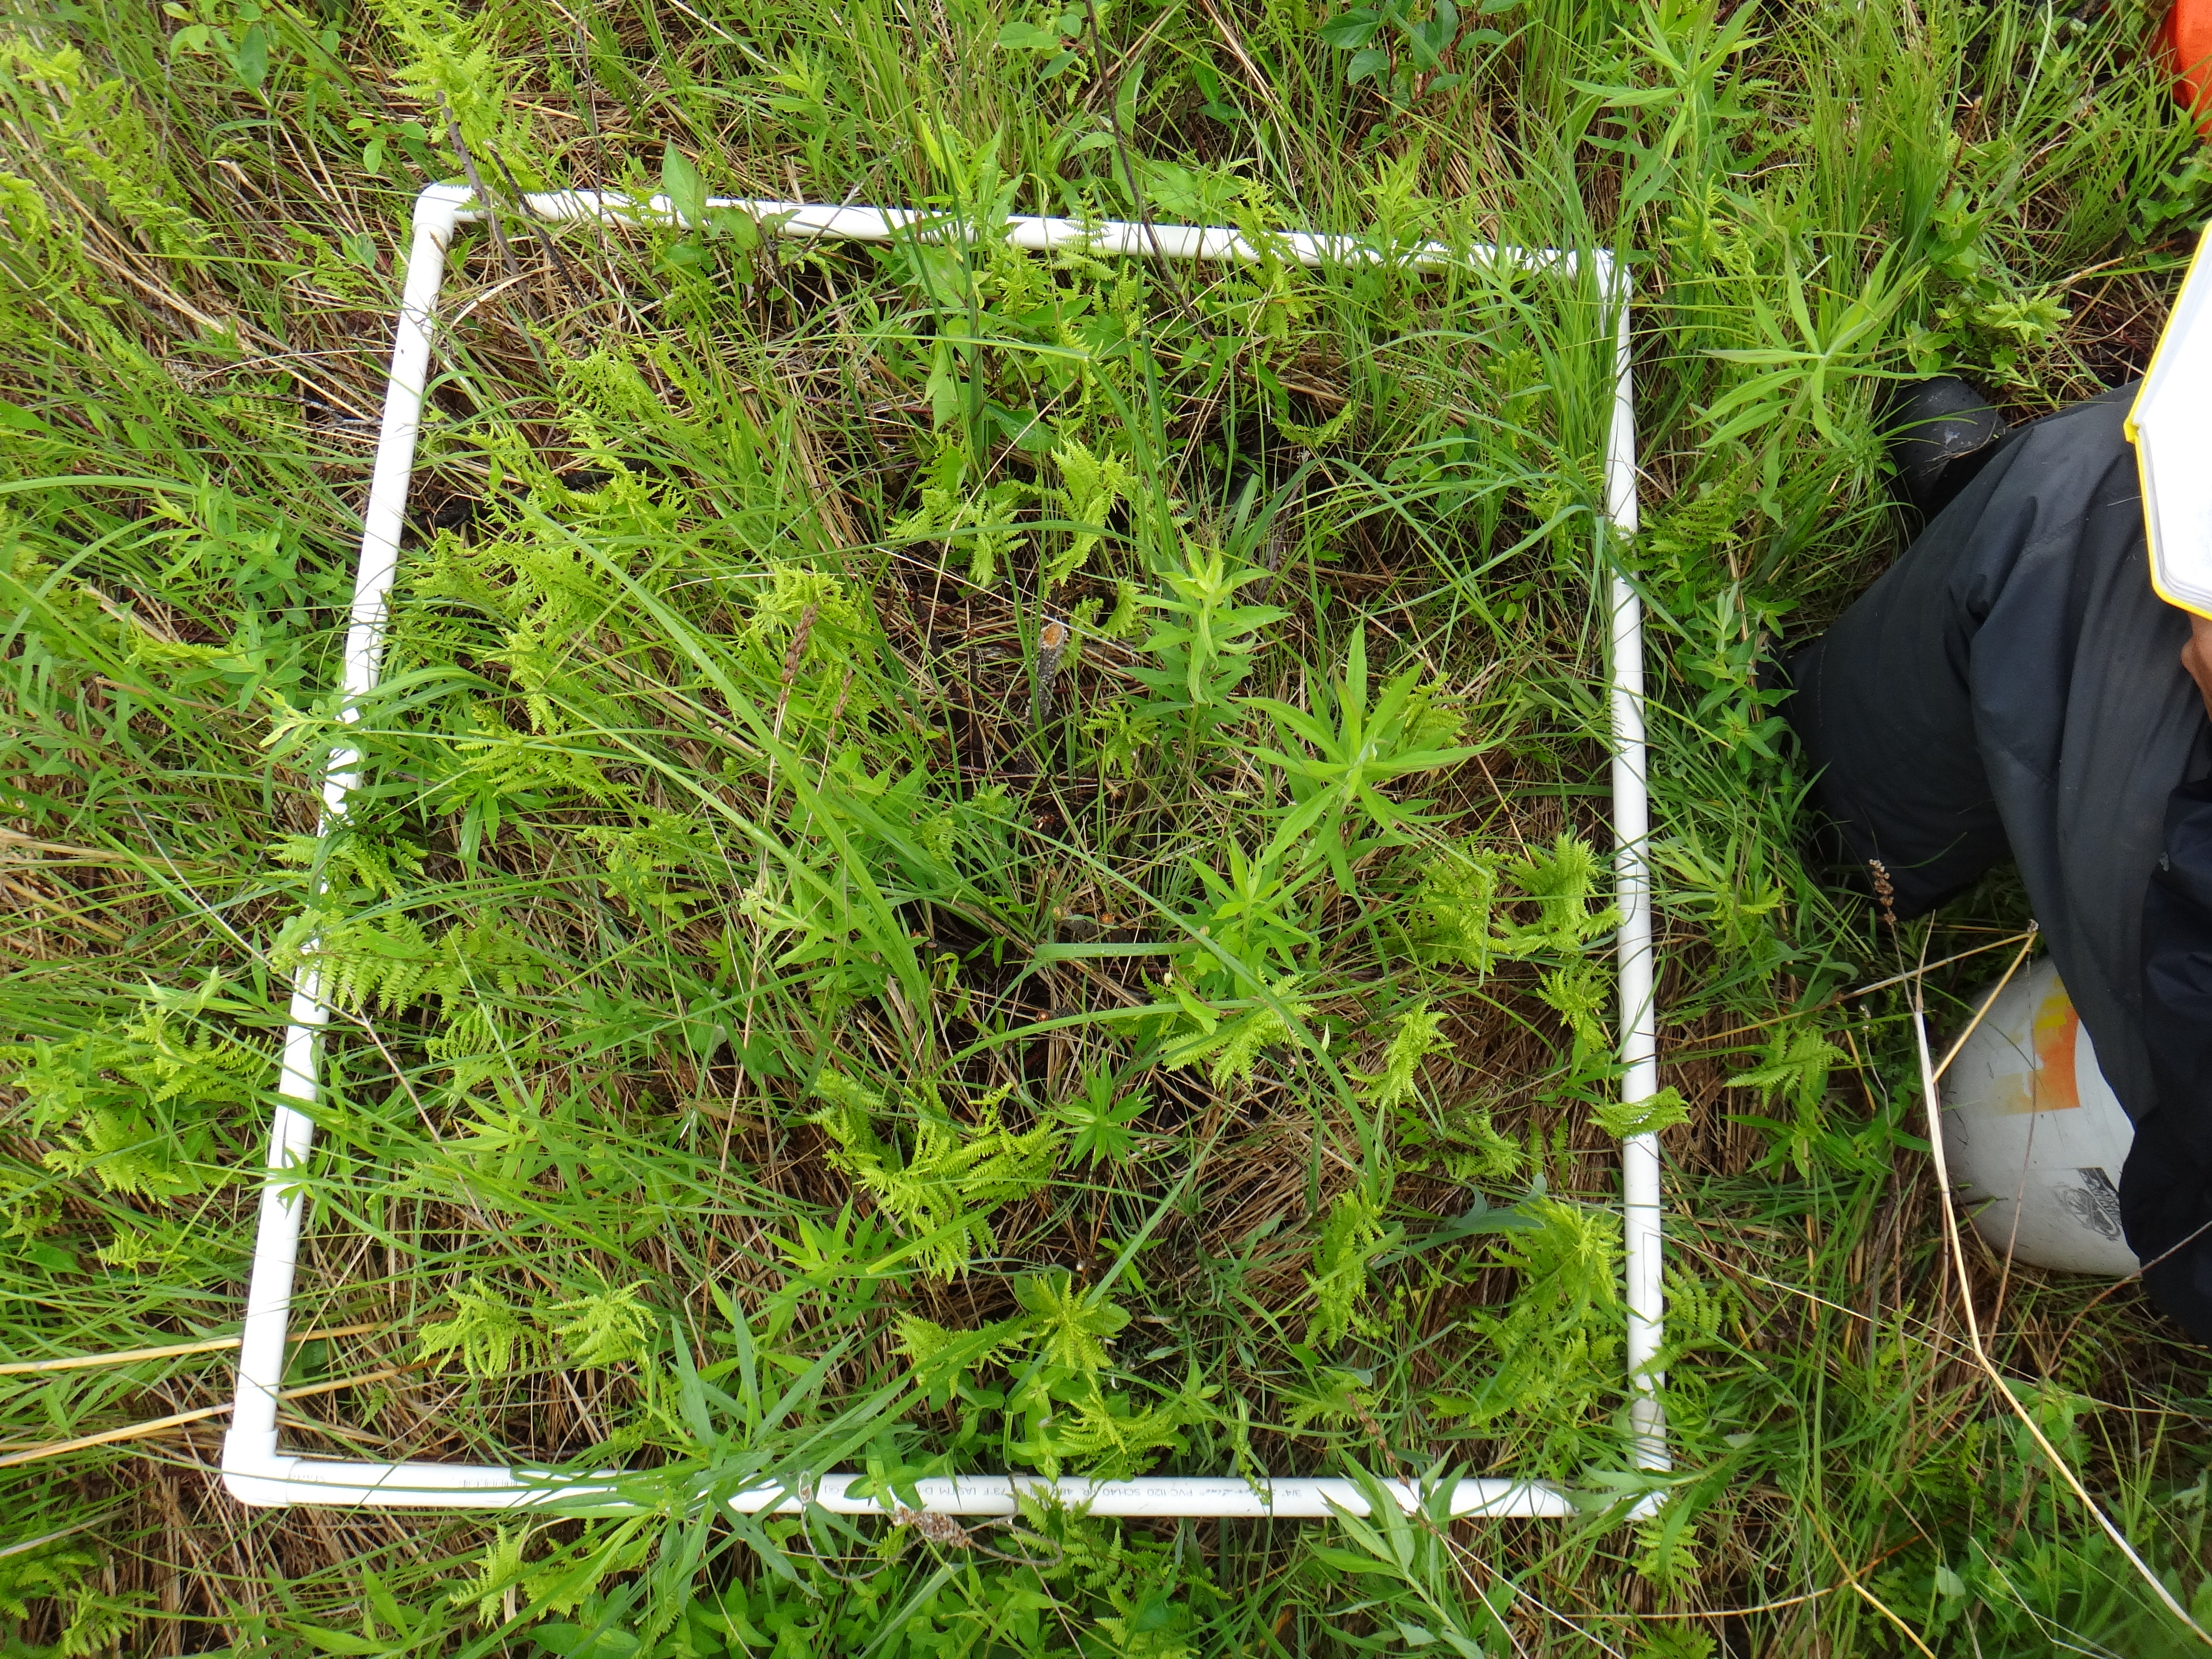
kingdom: Plantae
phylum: Tracheophyta
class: Magnoliopsida
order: Asterales
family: Asteraceae
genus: Symphyotrichum
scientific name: Symphyotrichum puniceum
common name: Bog aster
